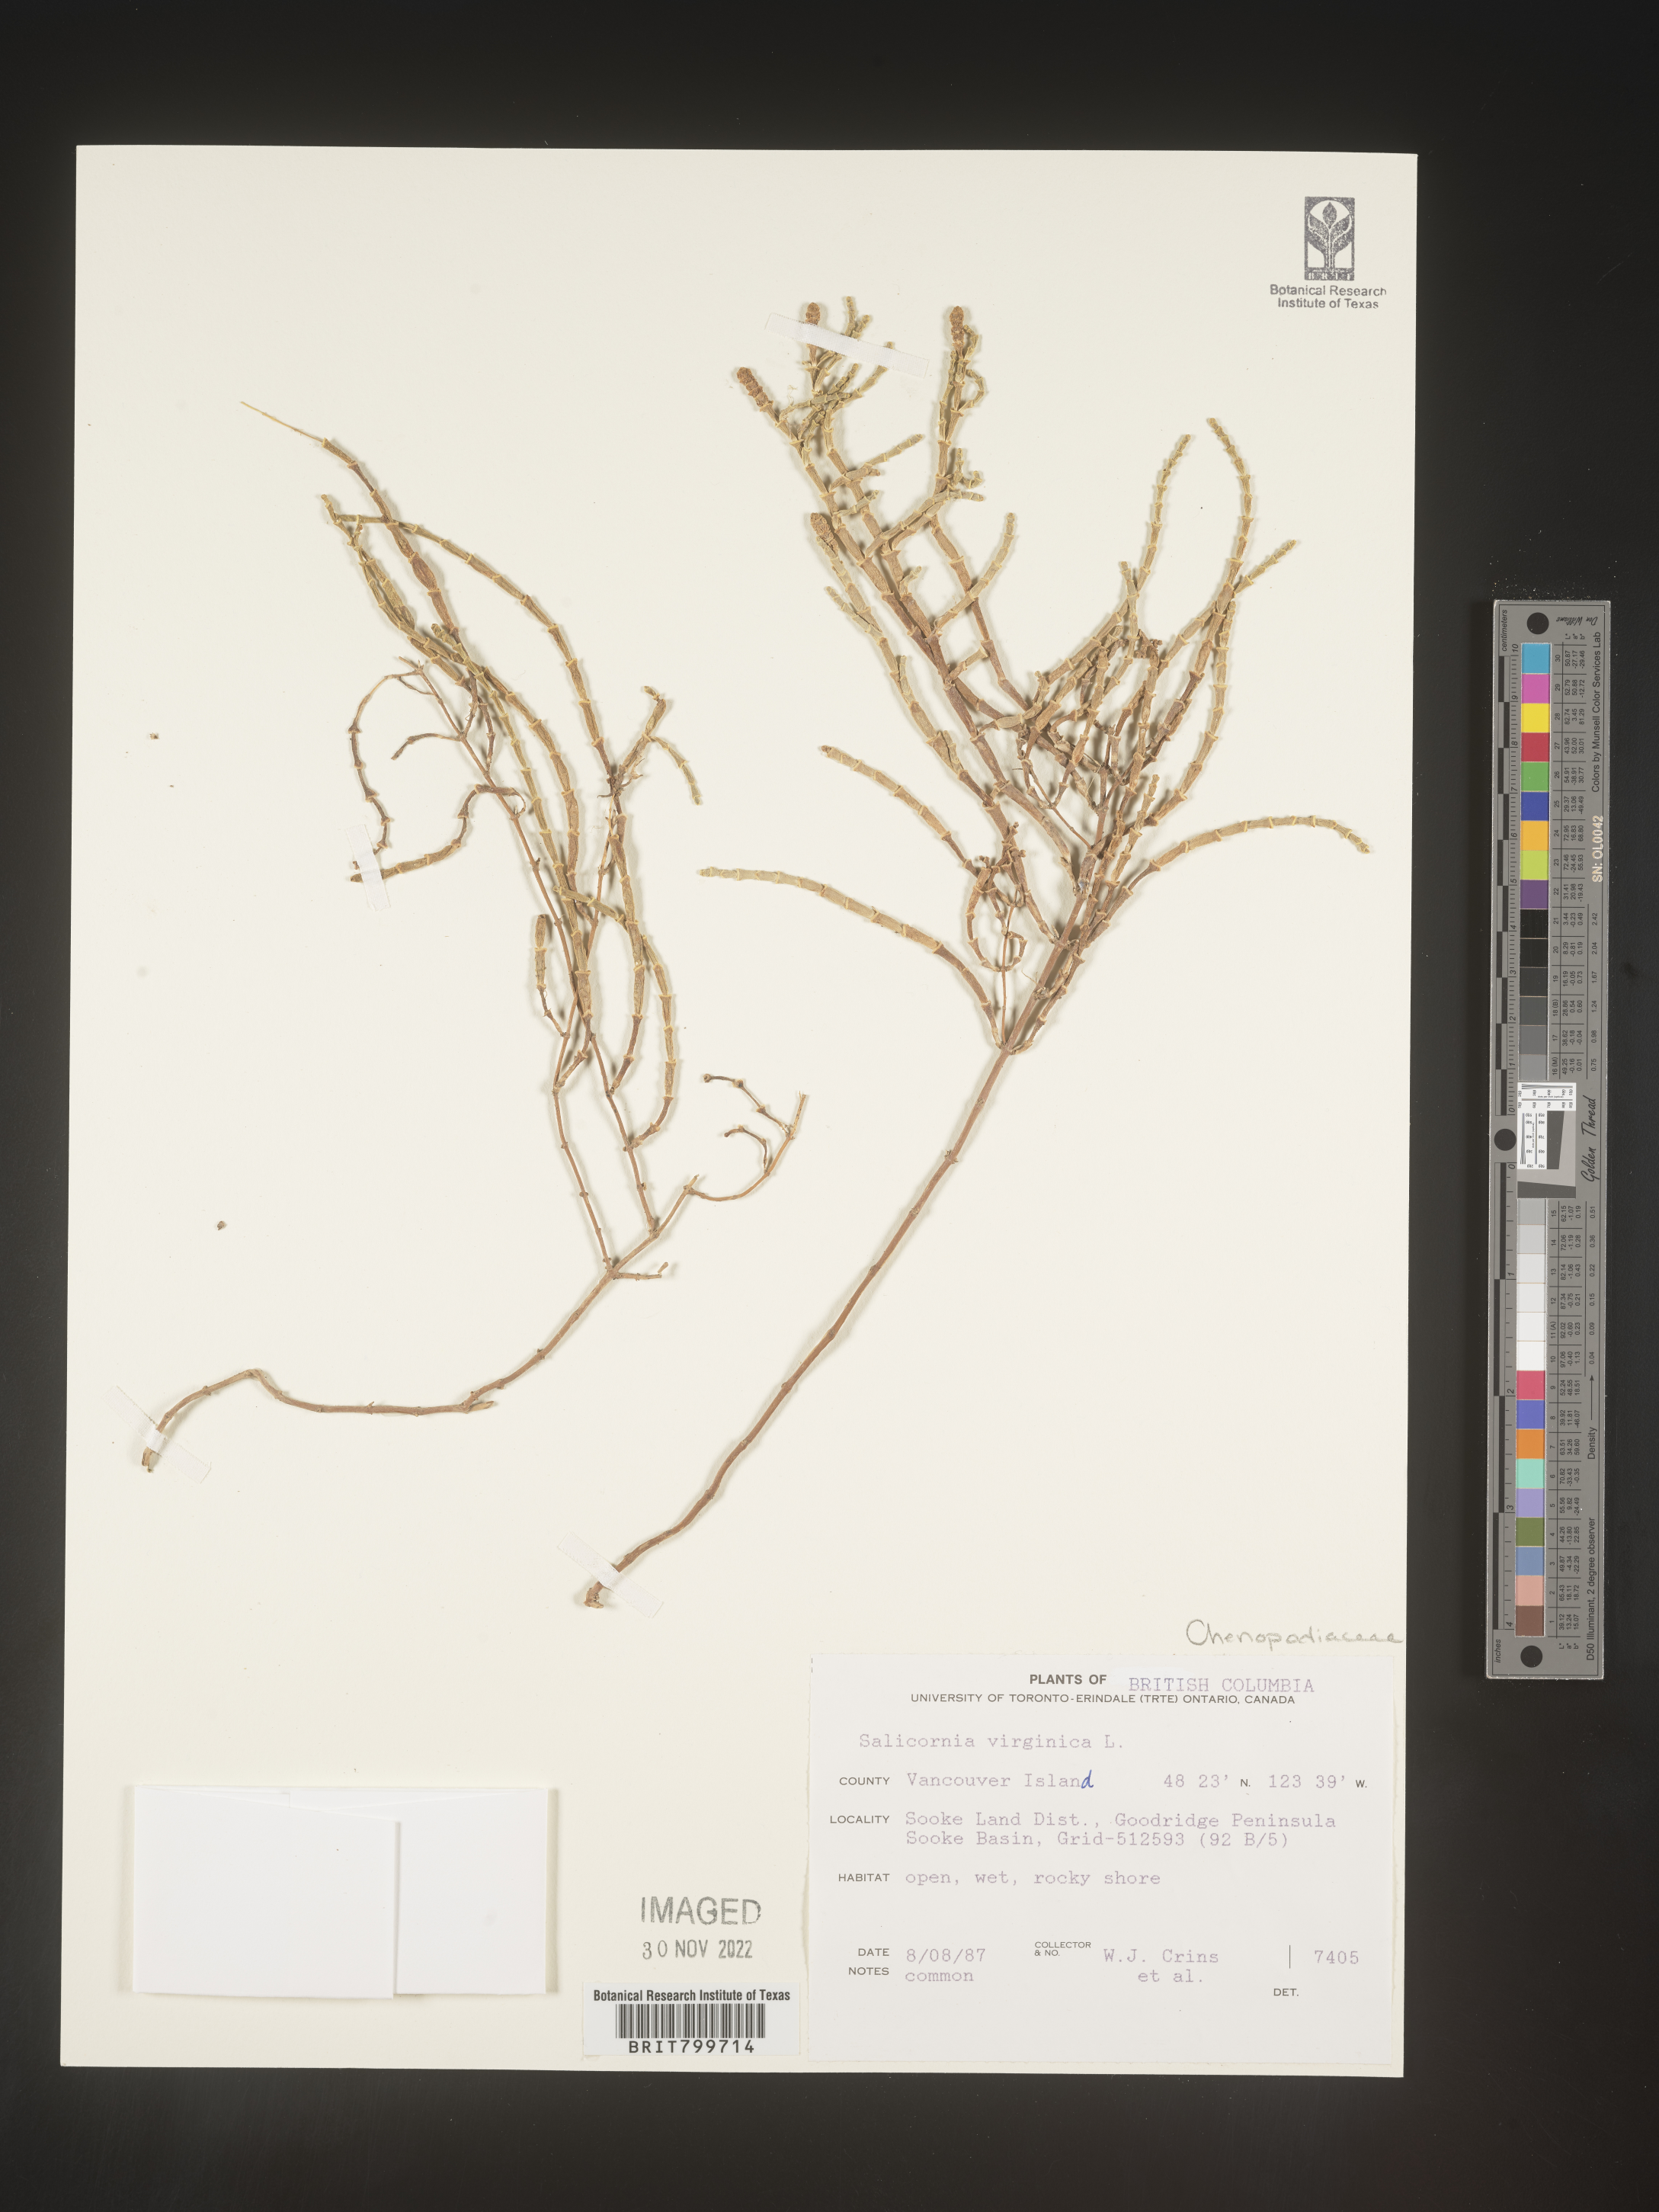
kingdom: Plantae
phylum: Tracheophyta
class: Magnoliopsida
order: Caryophyllales
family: Amaranthaceae
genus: Salicornia
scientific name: Salicornia virginica
